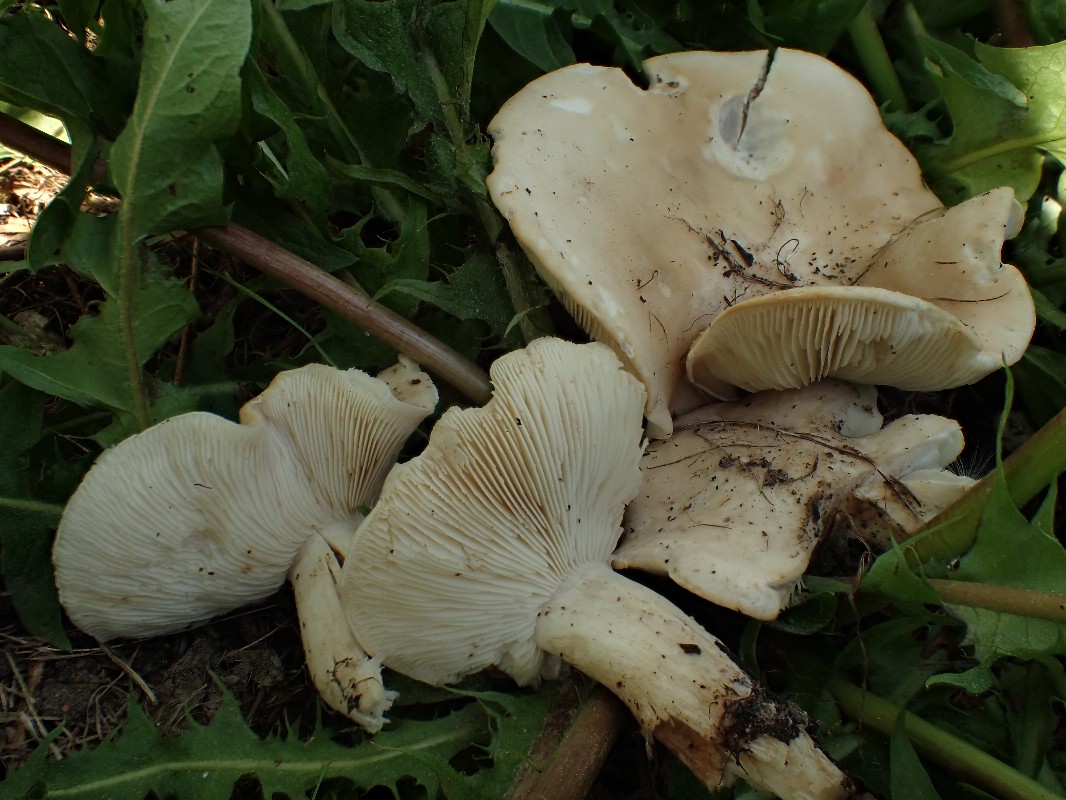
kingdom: Fungi
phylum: Basidiomycota
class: Agaricomycetes
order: Agaricales
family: Lyophyllaceae
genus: Calocybe
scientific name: Calocybe gambosa
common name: vårmusseron
